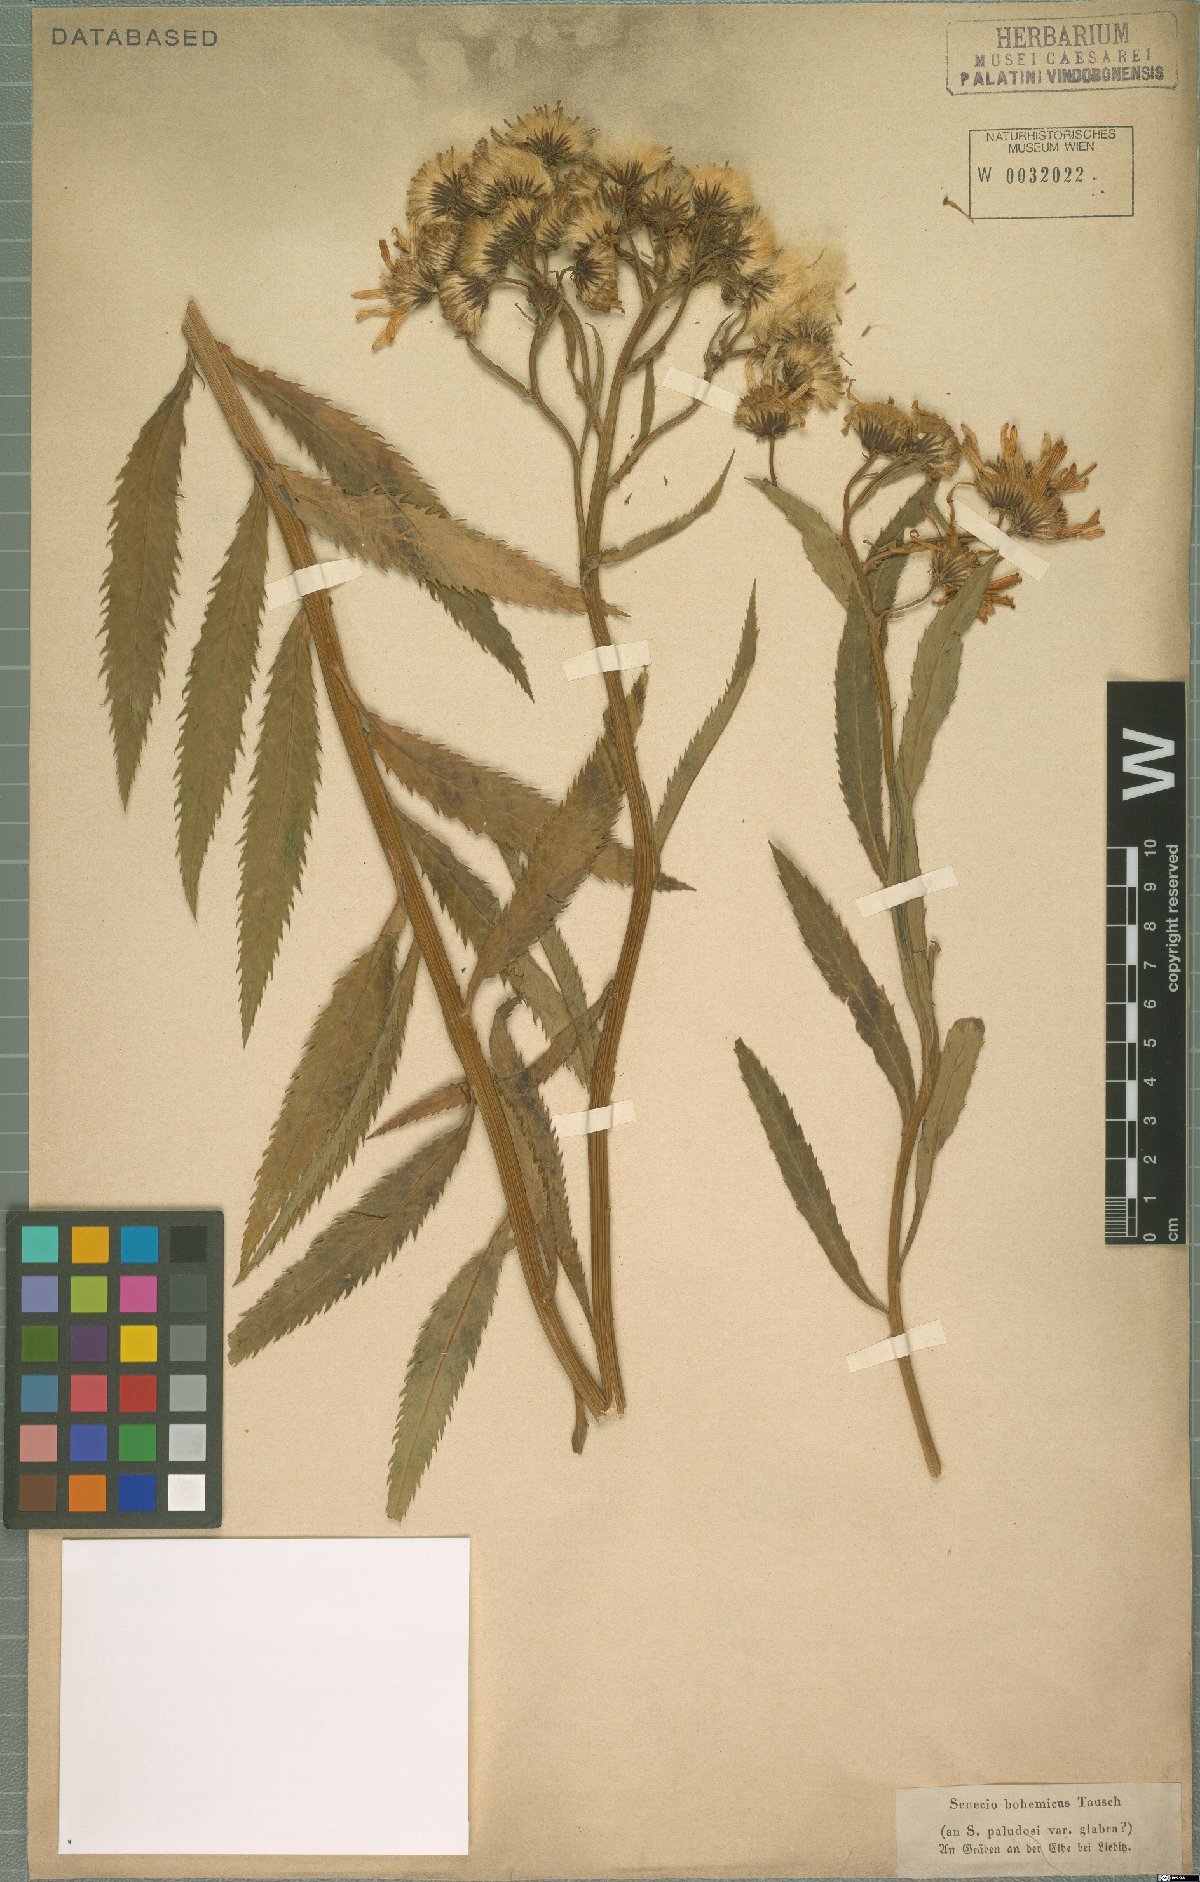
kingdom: Plantae
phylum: Tracheophyta
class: Magnoliopsida
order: Asterales
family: Asteraceae
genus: Jacobaea
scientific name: Jacobaea paludosa
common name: Fen ragwort
